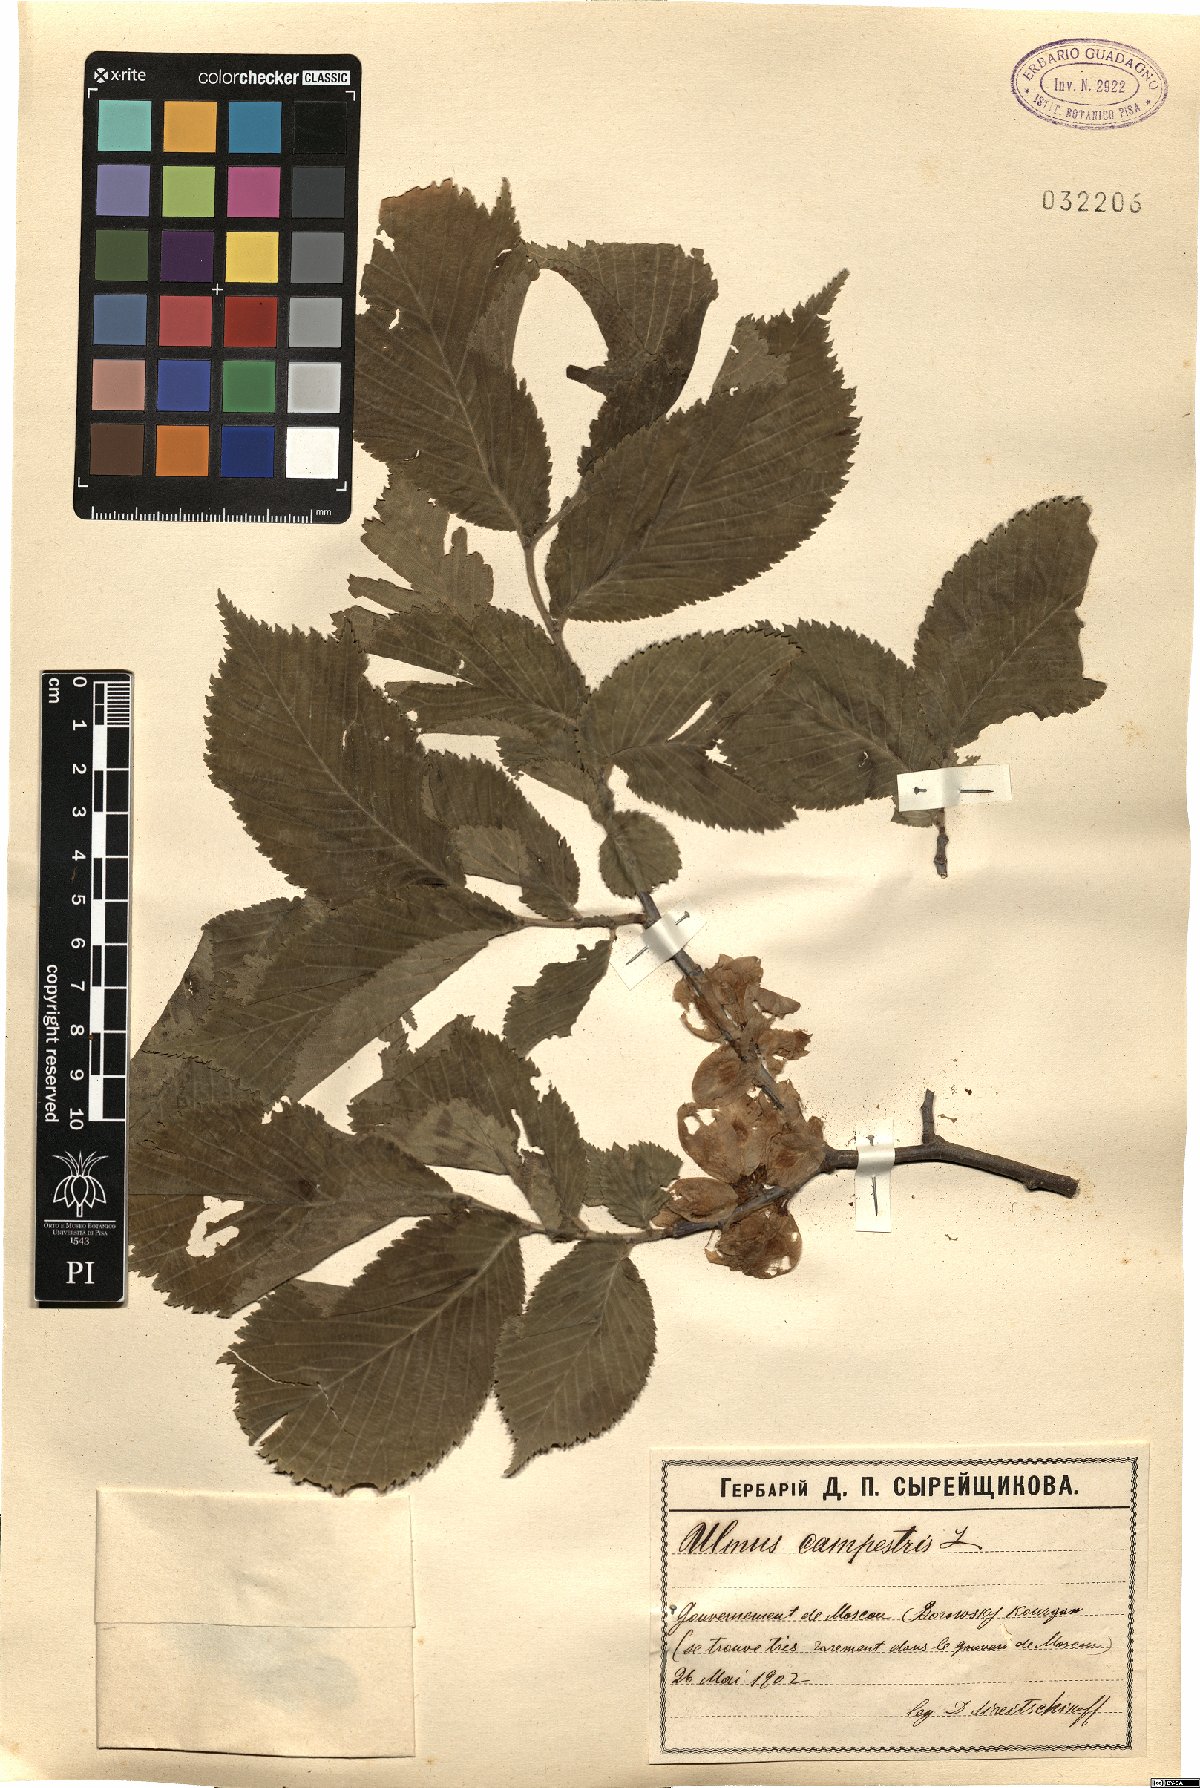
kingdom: Plantae
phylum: Tracheophyta
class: Magnoliopsida
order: Rosales
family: Ulmaceae
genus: Ulmus
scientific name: Ulmus glabra
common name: Wych elm
